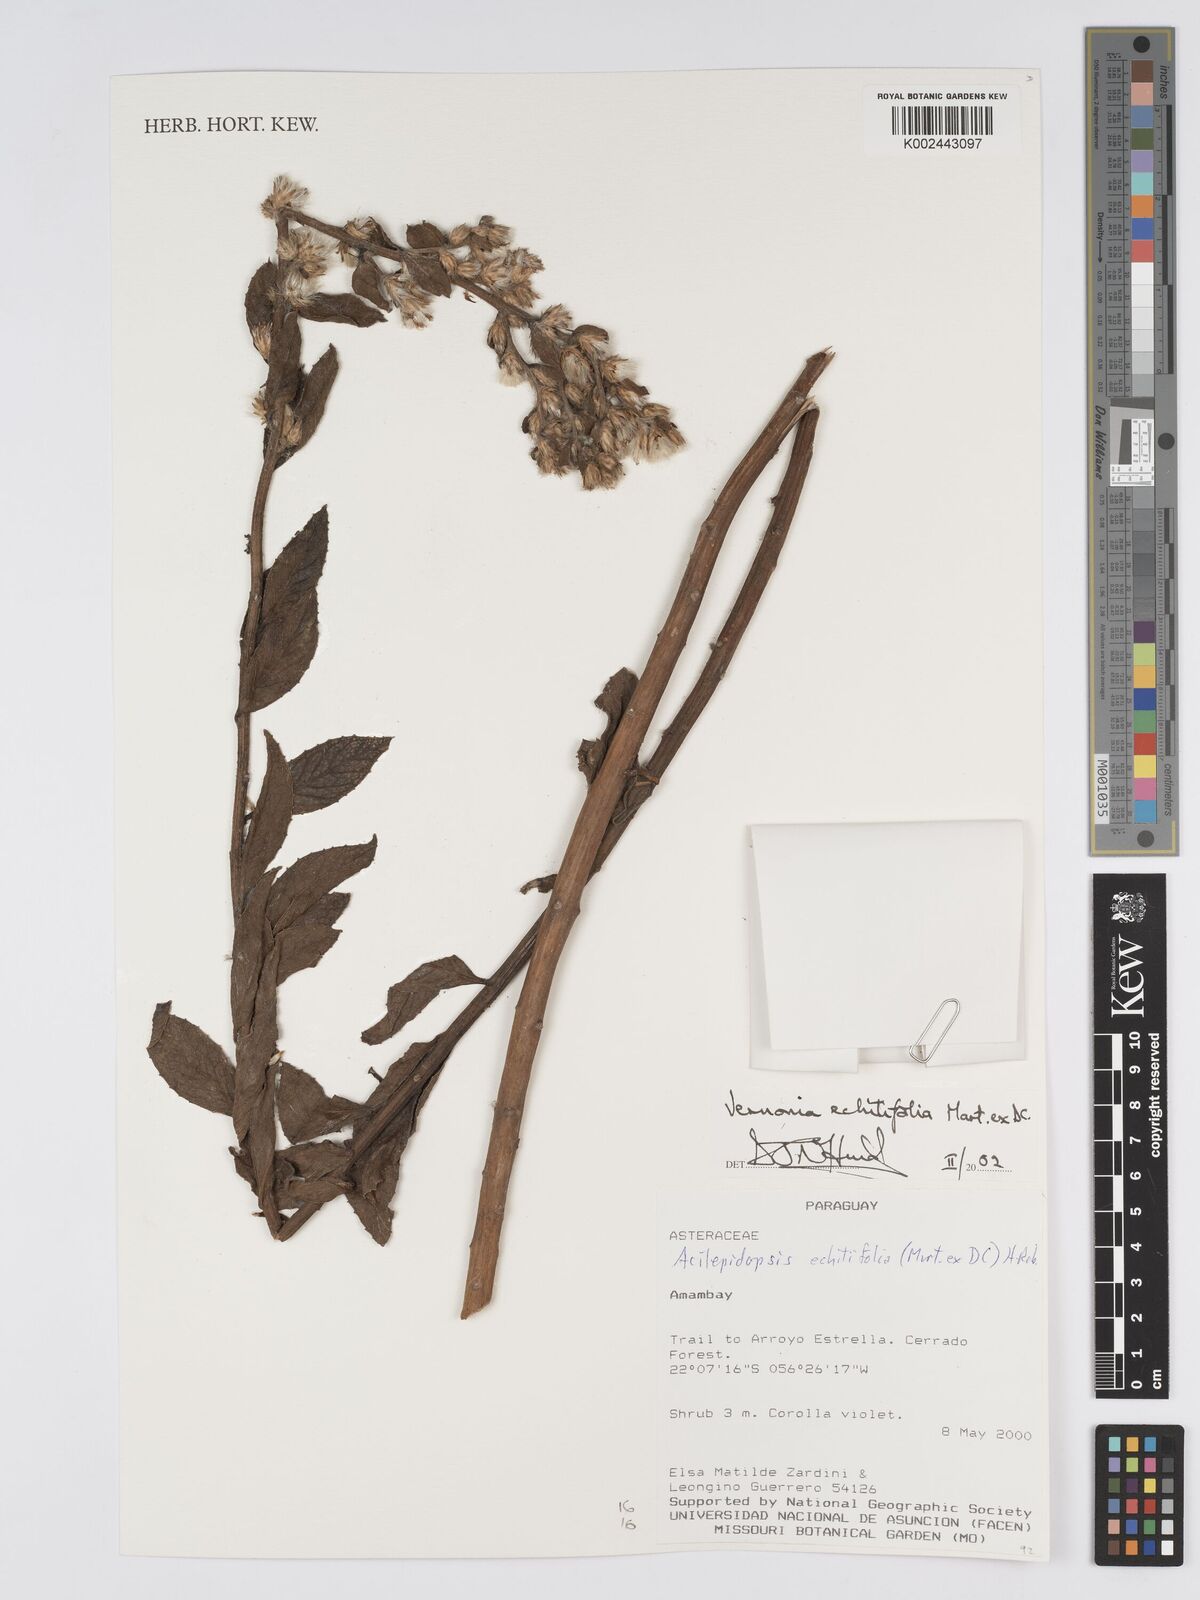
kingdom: Plantae
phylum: Tracheophyta
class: Magnoliopsida
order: Asterales
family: Asteraceae
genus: Acilepidopsis
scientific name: Acilepidopsis echitifolia
